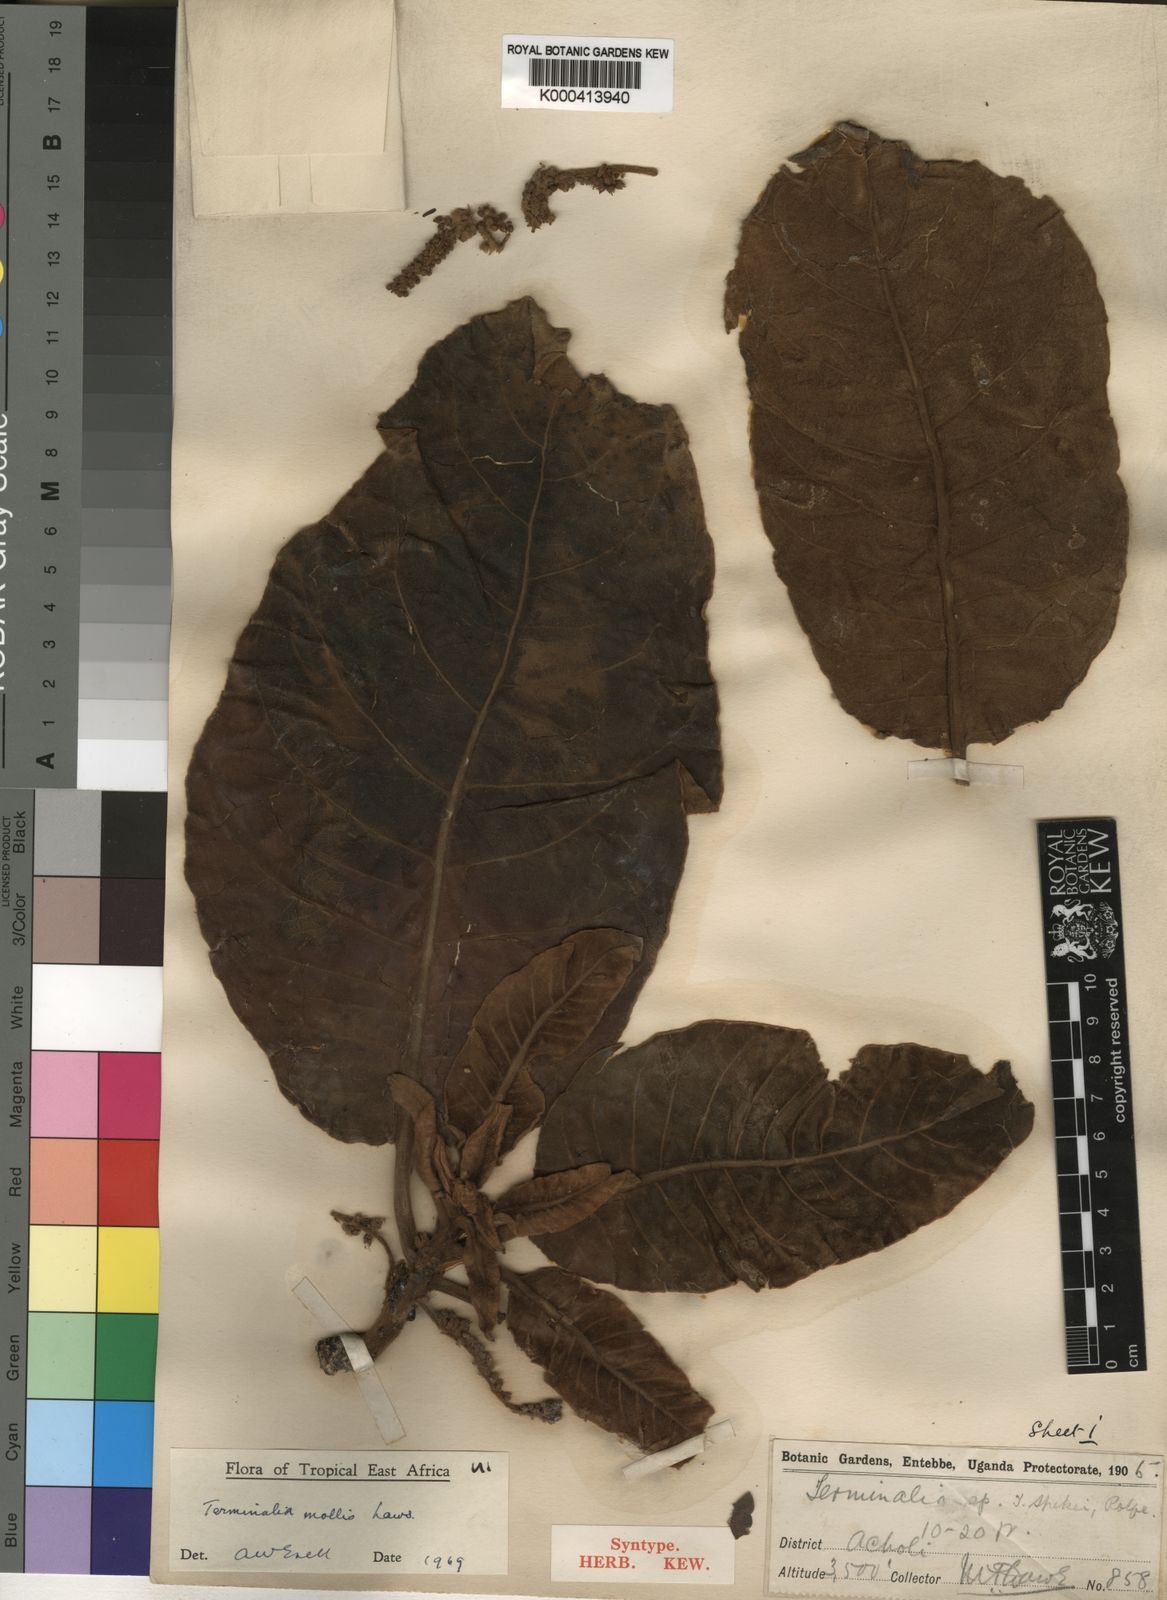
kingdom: Plantae
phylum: Tracheophyta
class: Magnoliopsida
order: Myrtales
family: Combretaceae
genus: Terminalia
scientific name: Terminalia mollis
